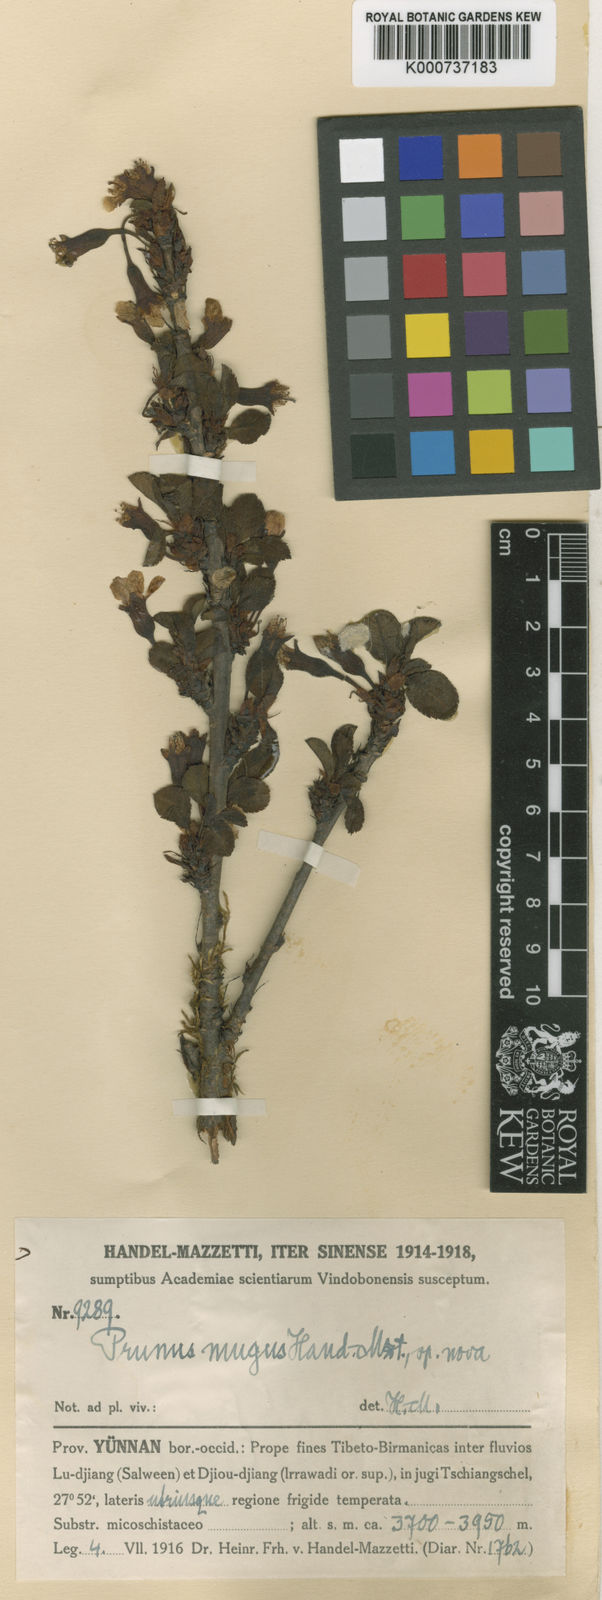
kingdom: Plantae
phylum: Tracheophyta
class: Magnoliopsida
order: Rosales
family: Rosaceae
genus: Prunus
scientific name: Prunus mugus
